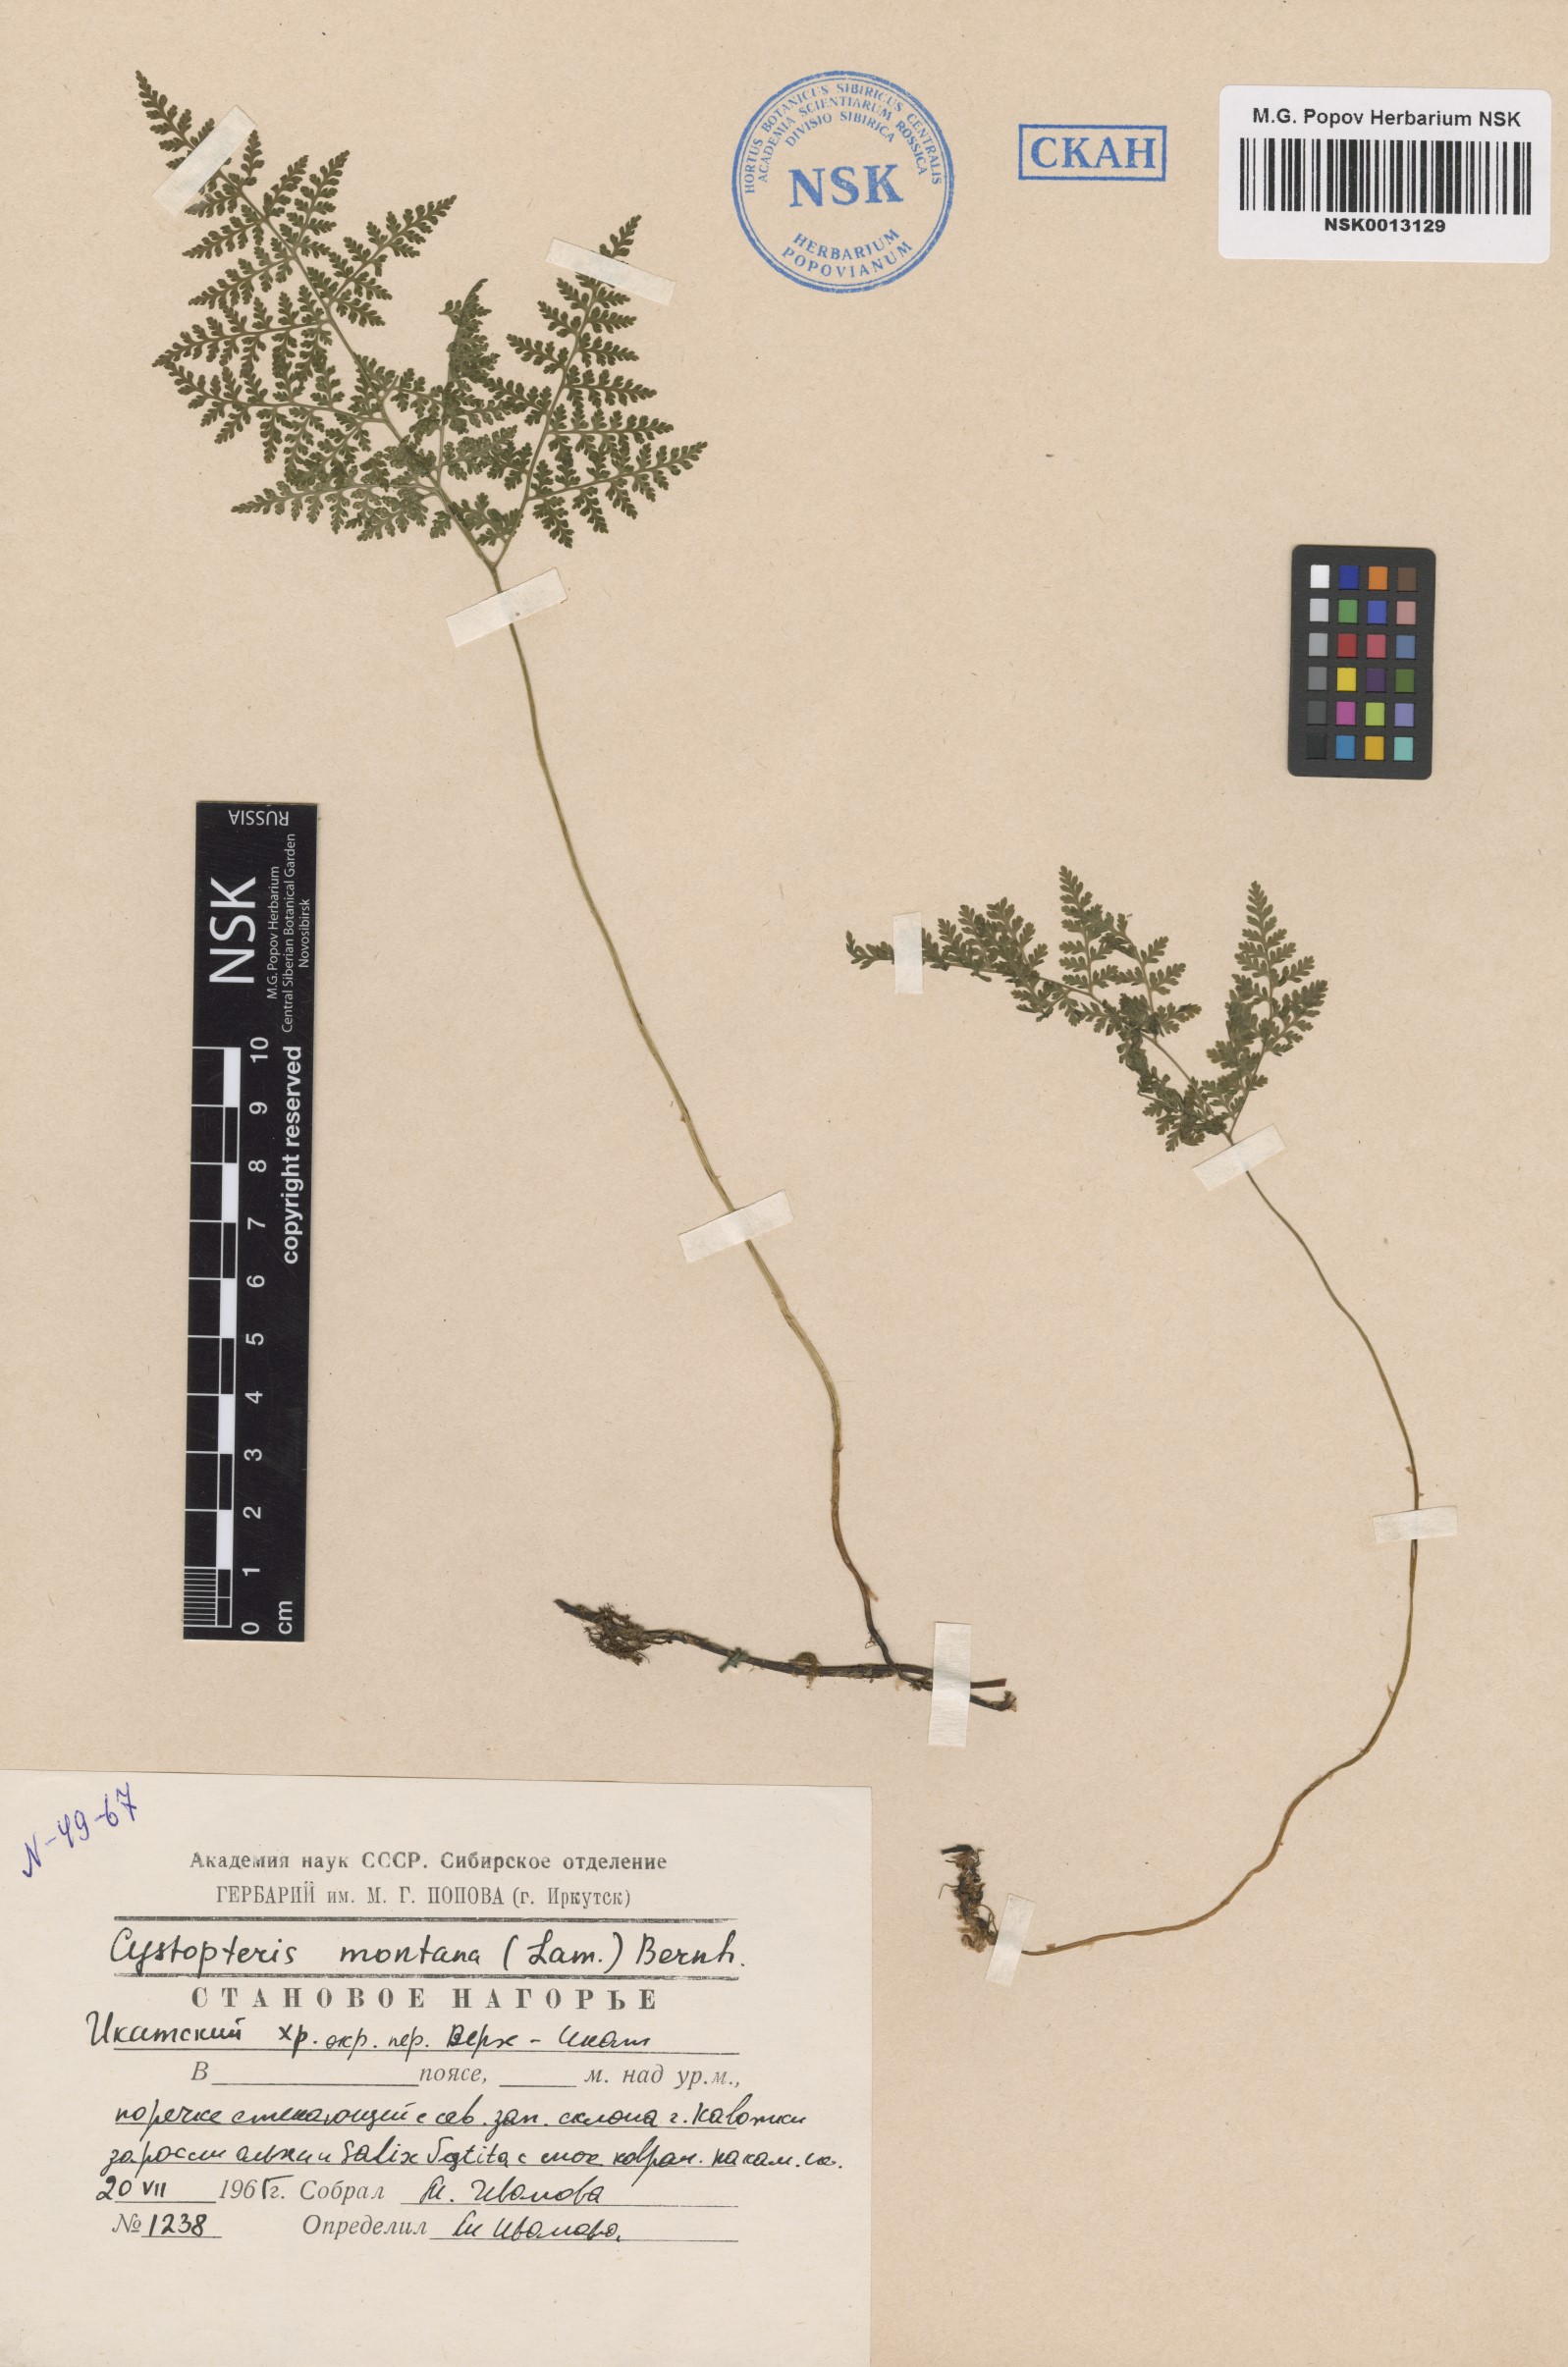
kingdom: Plantae
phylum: Tracheophyta
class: Polypodiopsida
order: Polypodiales
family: Cystopteridaceae
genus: Cystopteris
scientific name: Cystopteris montana
